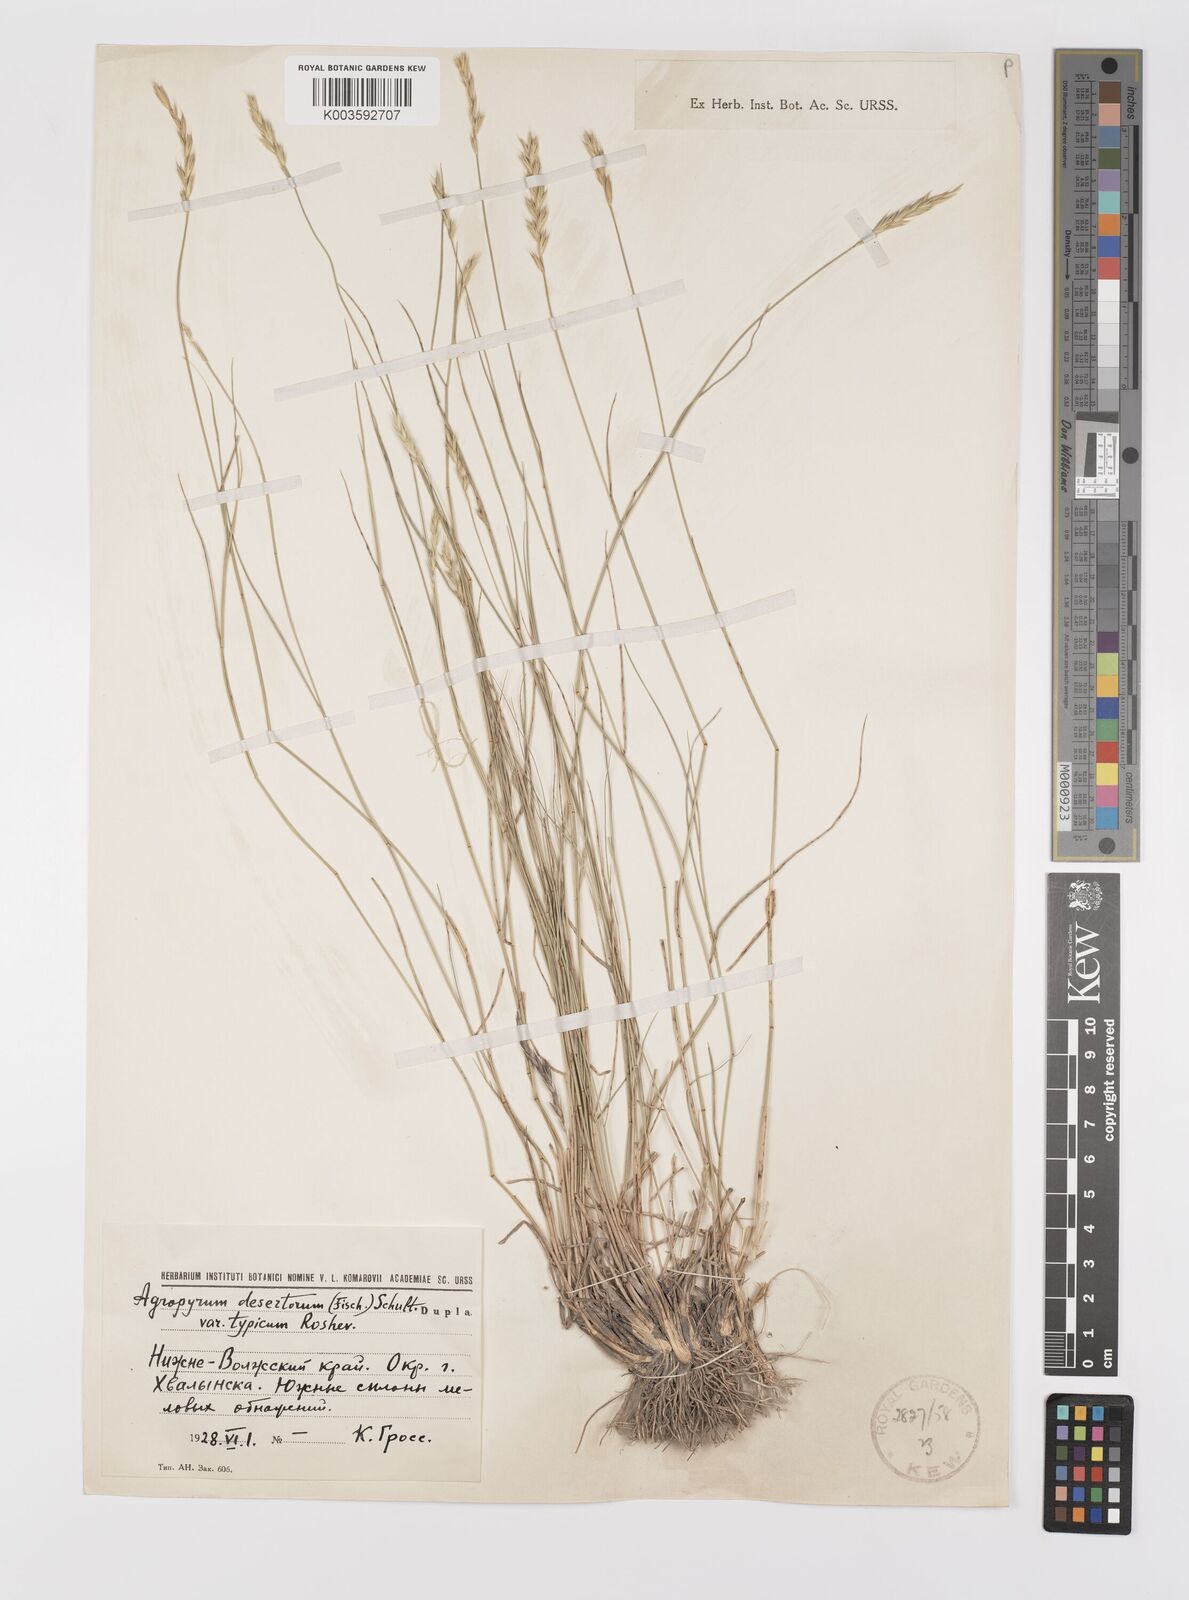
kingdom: Plantae
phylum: Tracheophyta
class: Liliopsida
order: Poales
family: Poaceae
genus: Agropyron
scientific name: Agropyron desertorum
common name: Desert wheatgrass
